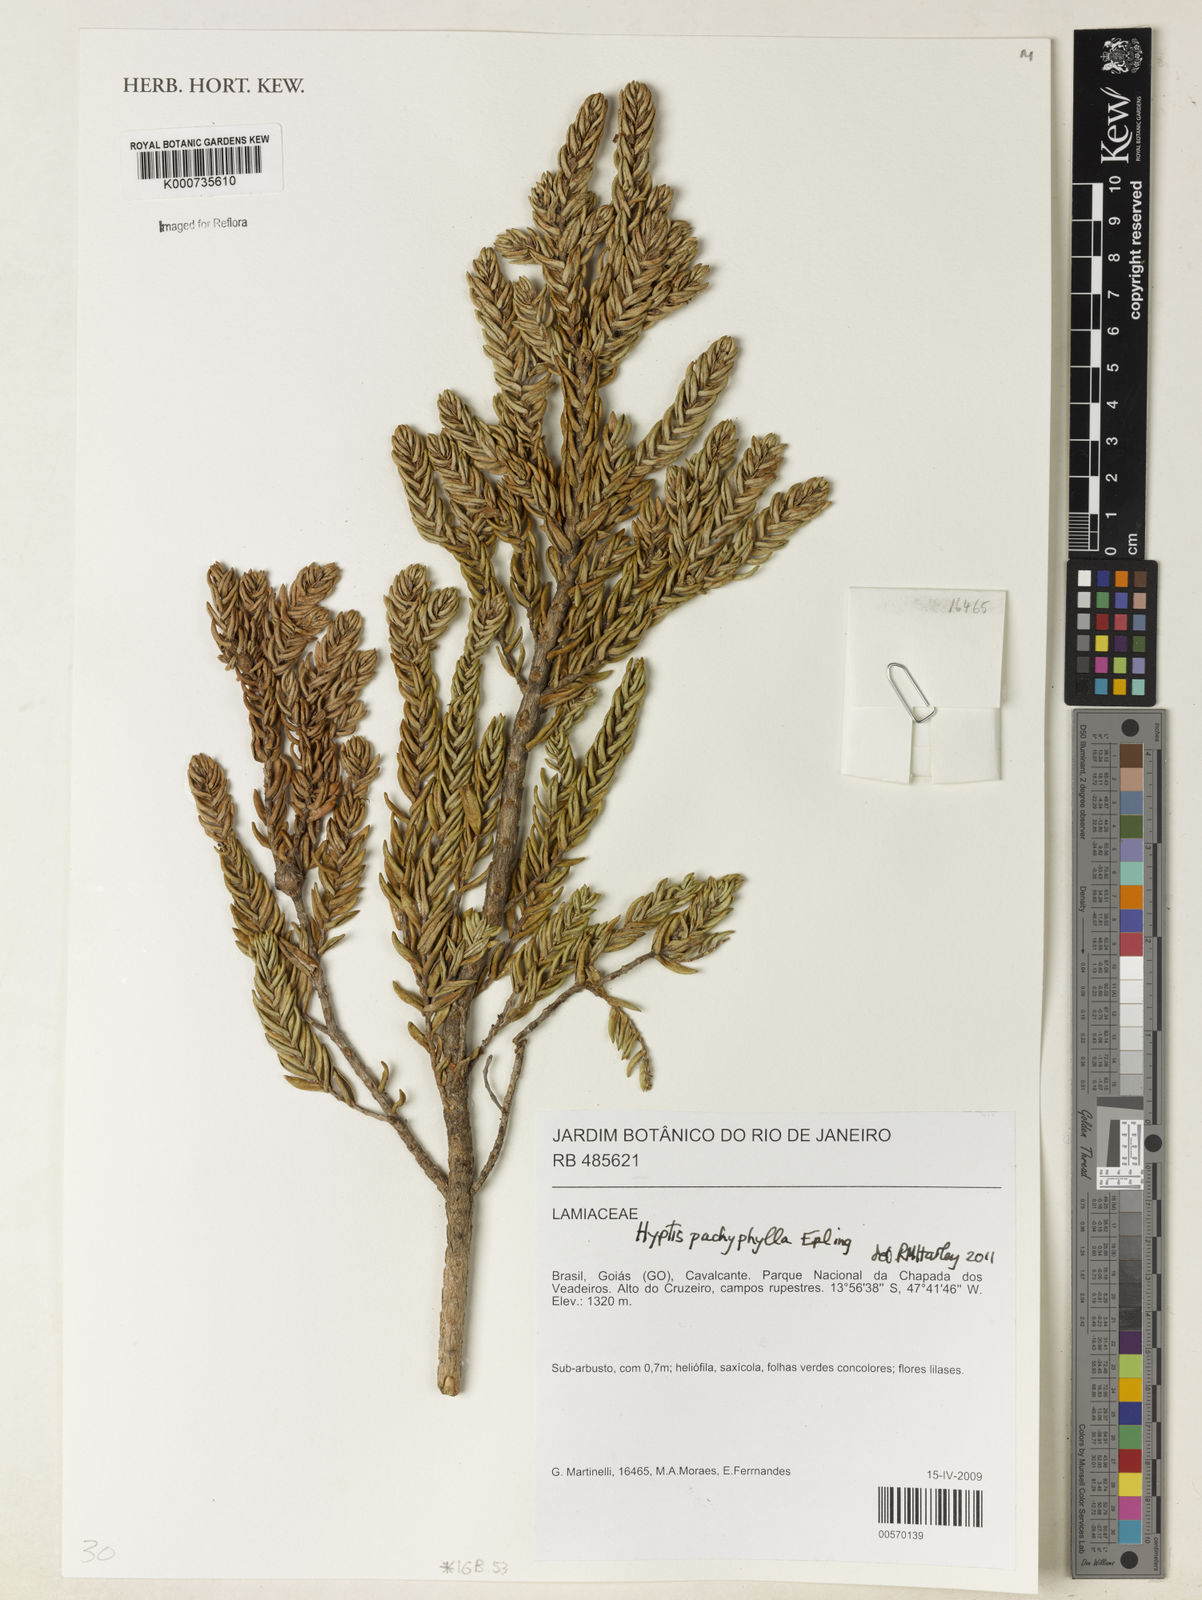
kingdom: Plantae
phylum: Tracheophyta
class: Magnoliopsida
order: Lamiales
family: Lamiaceae
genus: Hyptis
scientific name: Hyptis pachyphylla
